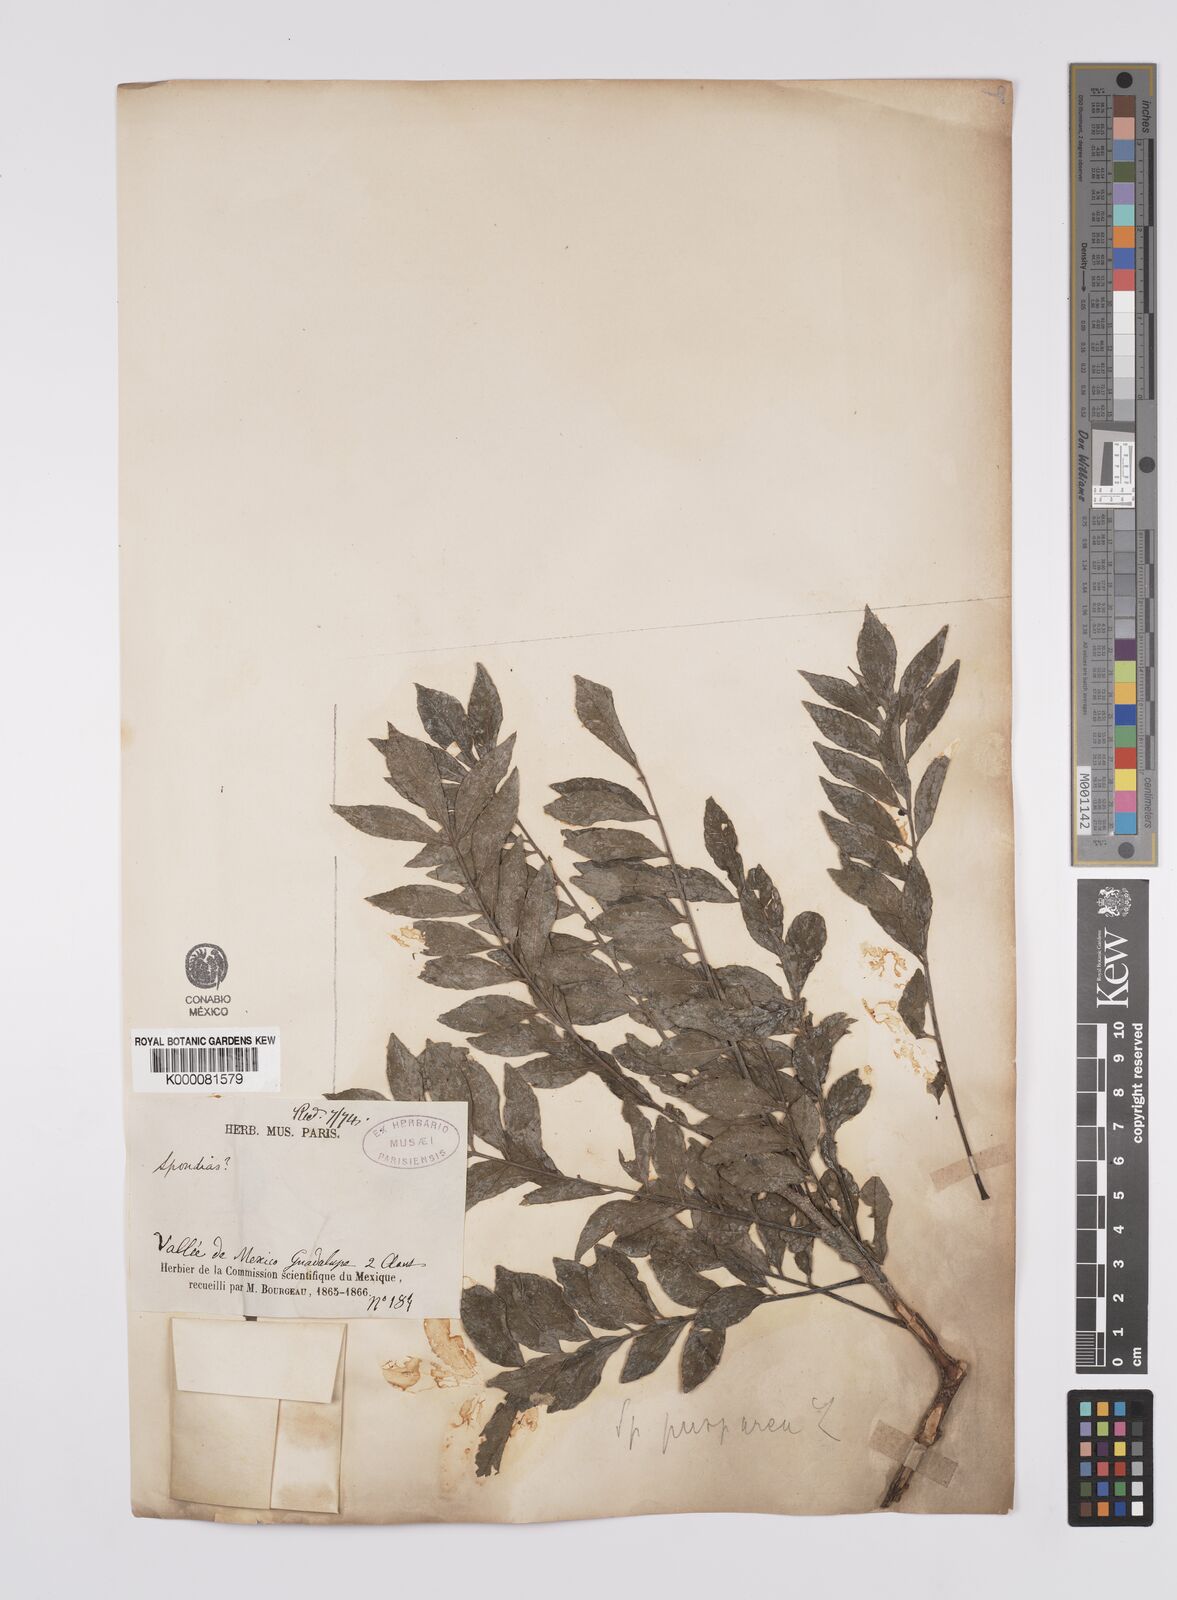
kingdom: Plantae
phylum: Tracheophyta
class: Magnoliopsida
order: Sapindales
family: Anacardiaceae
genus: Spondias
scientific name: Spondias purpurea
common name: Purple mombin
